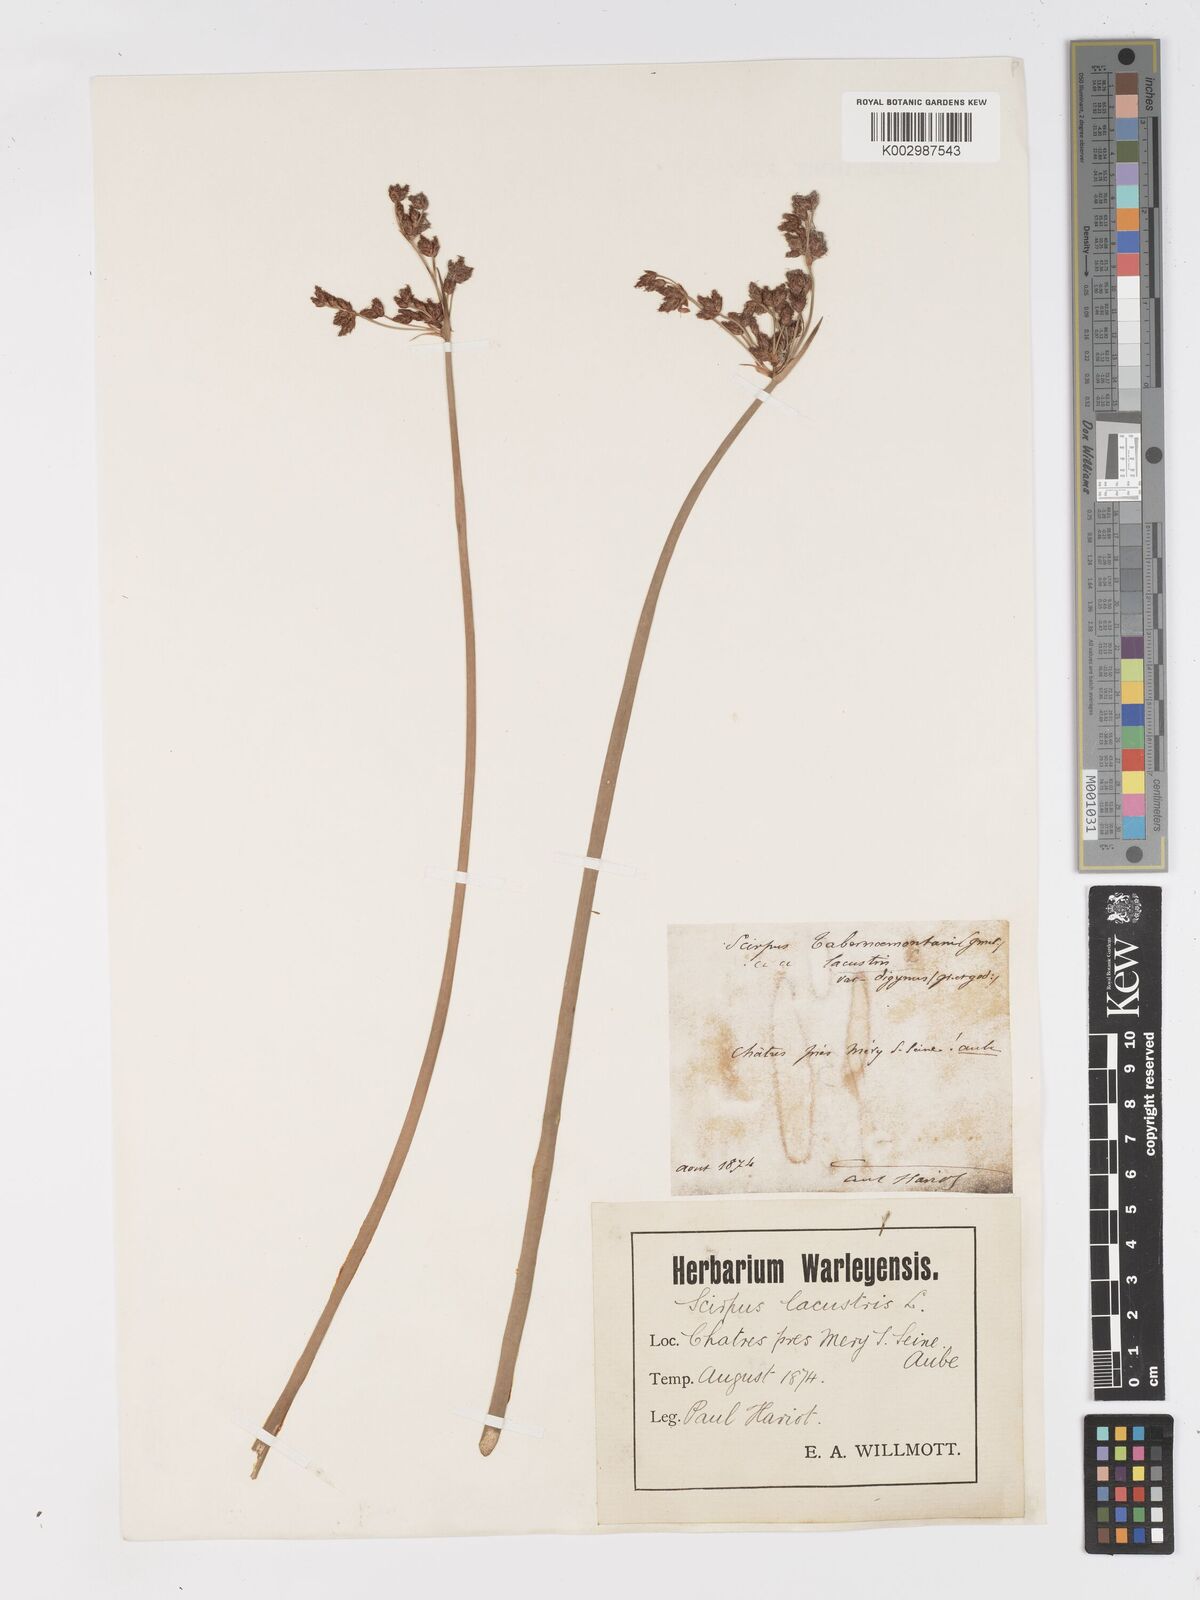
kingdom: Plantae
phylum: Tracheophyta
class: Liliopsida
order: Poales
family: Cyperaceae
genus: Schoenoplectus
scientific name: Schoenoplectus lacustris
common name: Common club-rush
